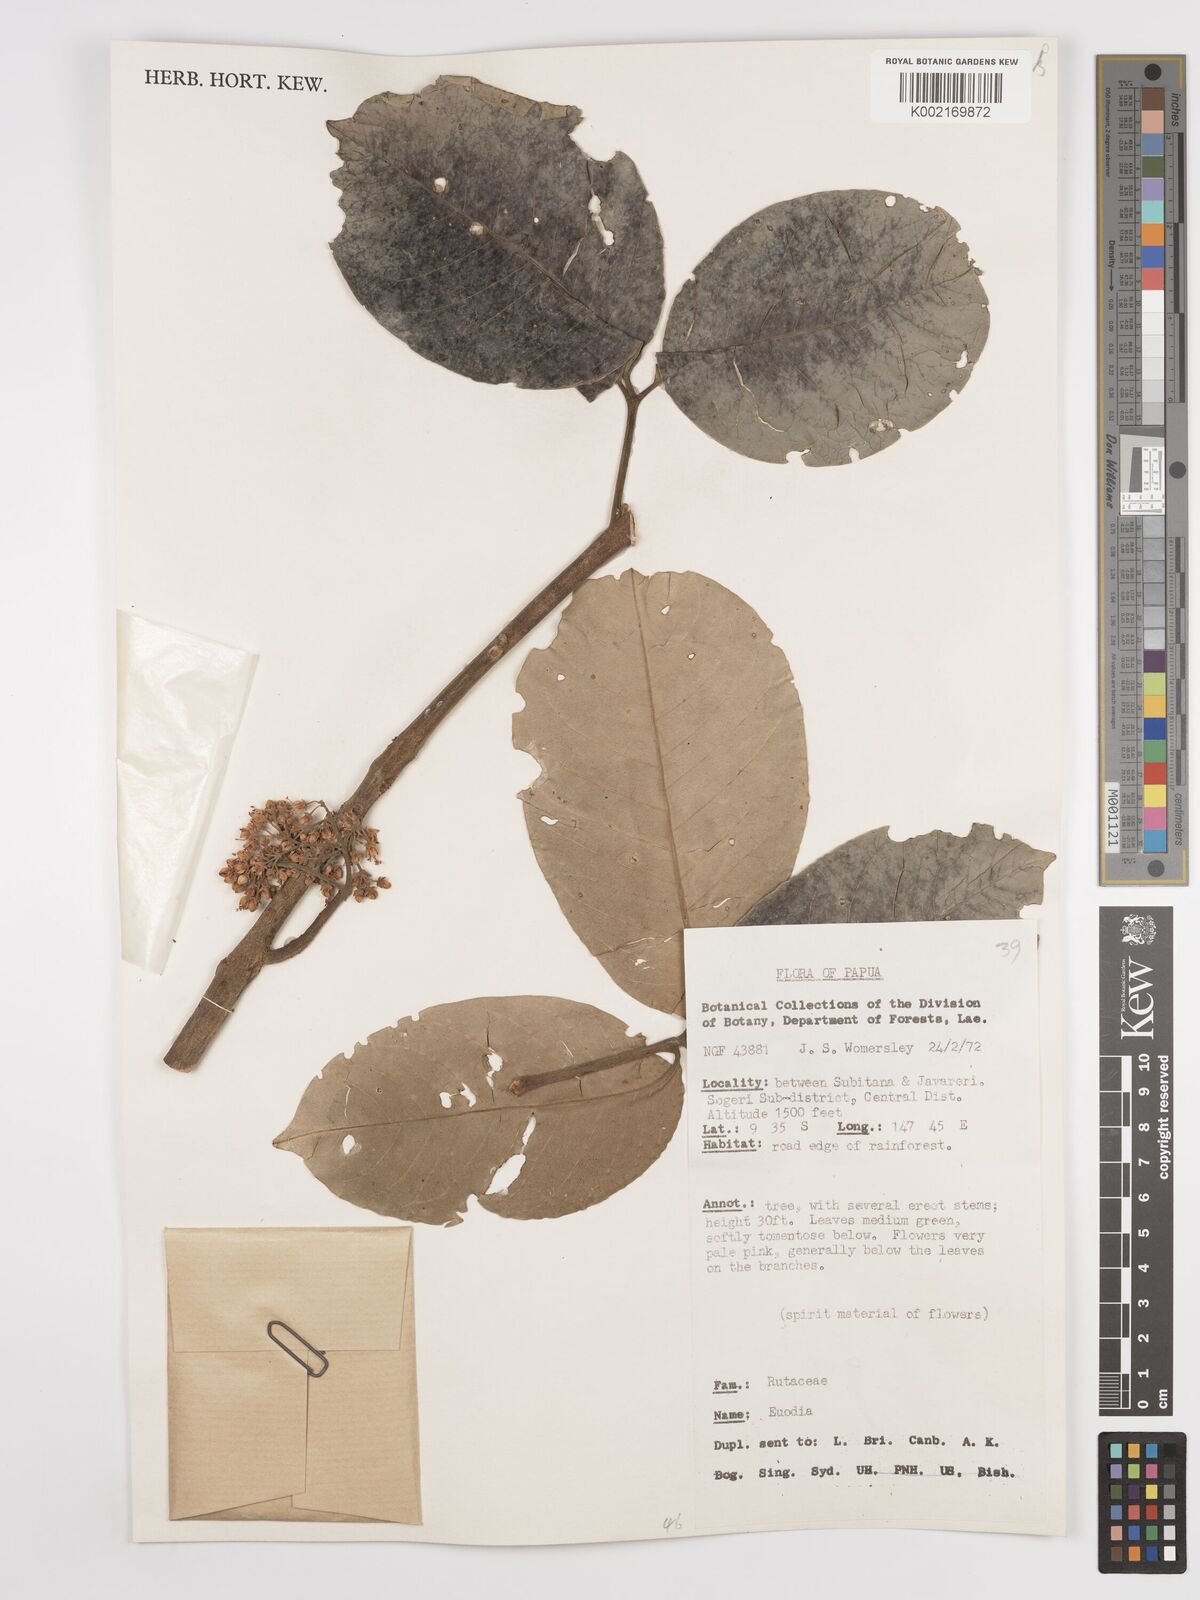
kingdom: Plantae
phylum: Tracheophyta
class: Magnoliopsida
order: Sapindales
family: Rutaceae
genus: Euodia
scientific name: Euodia
